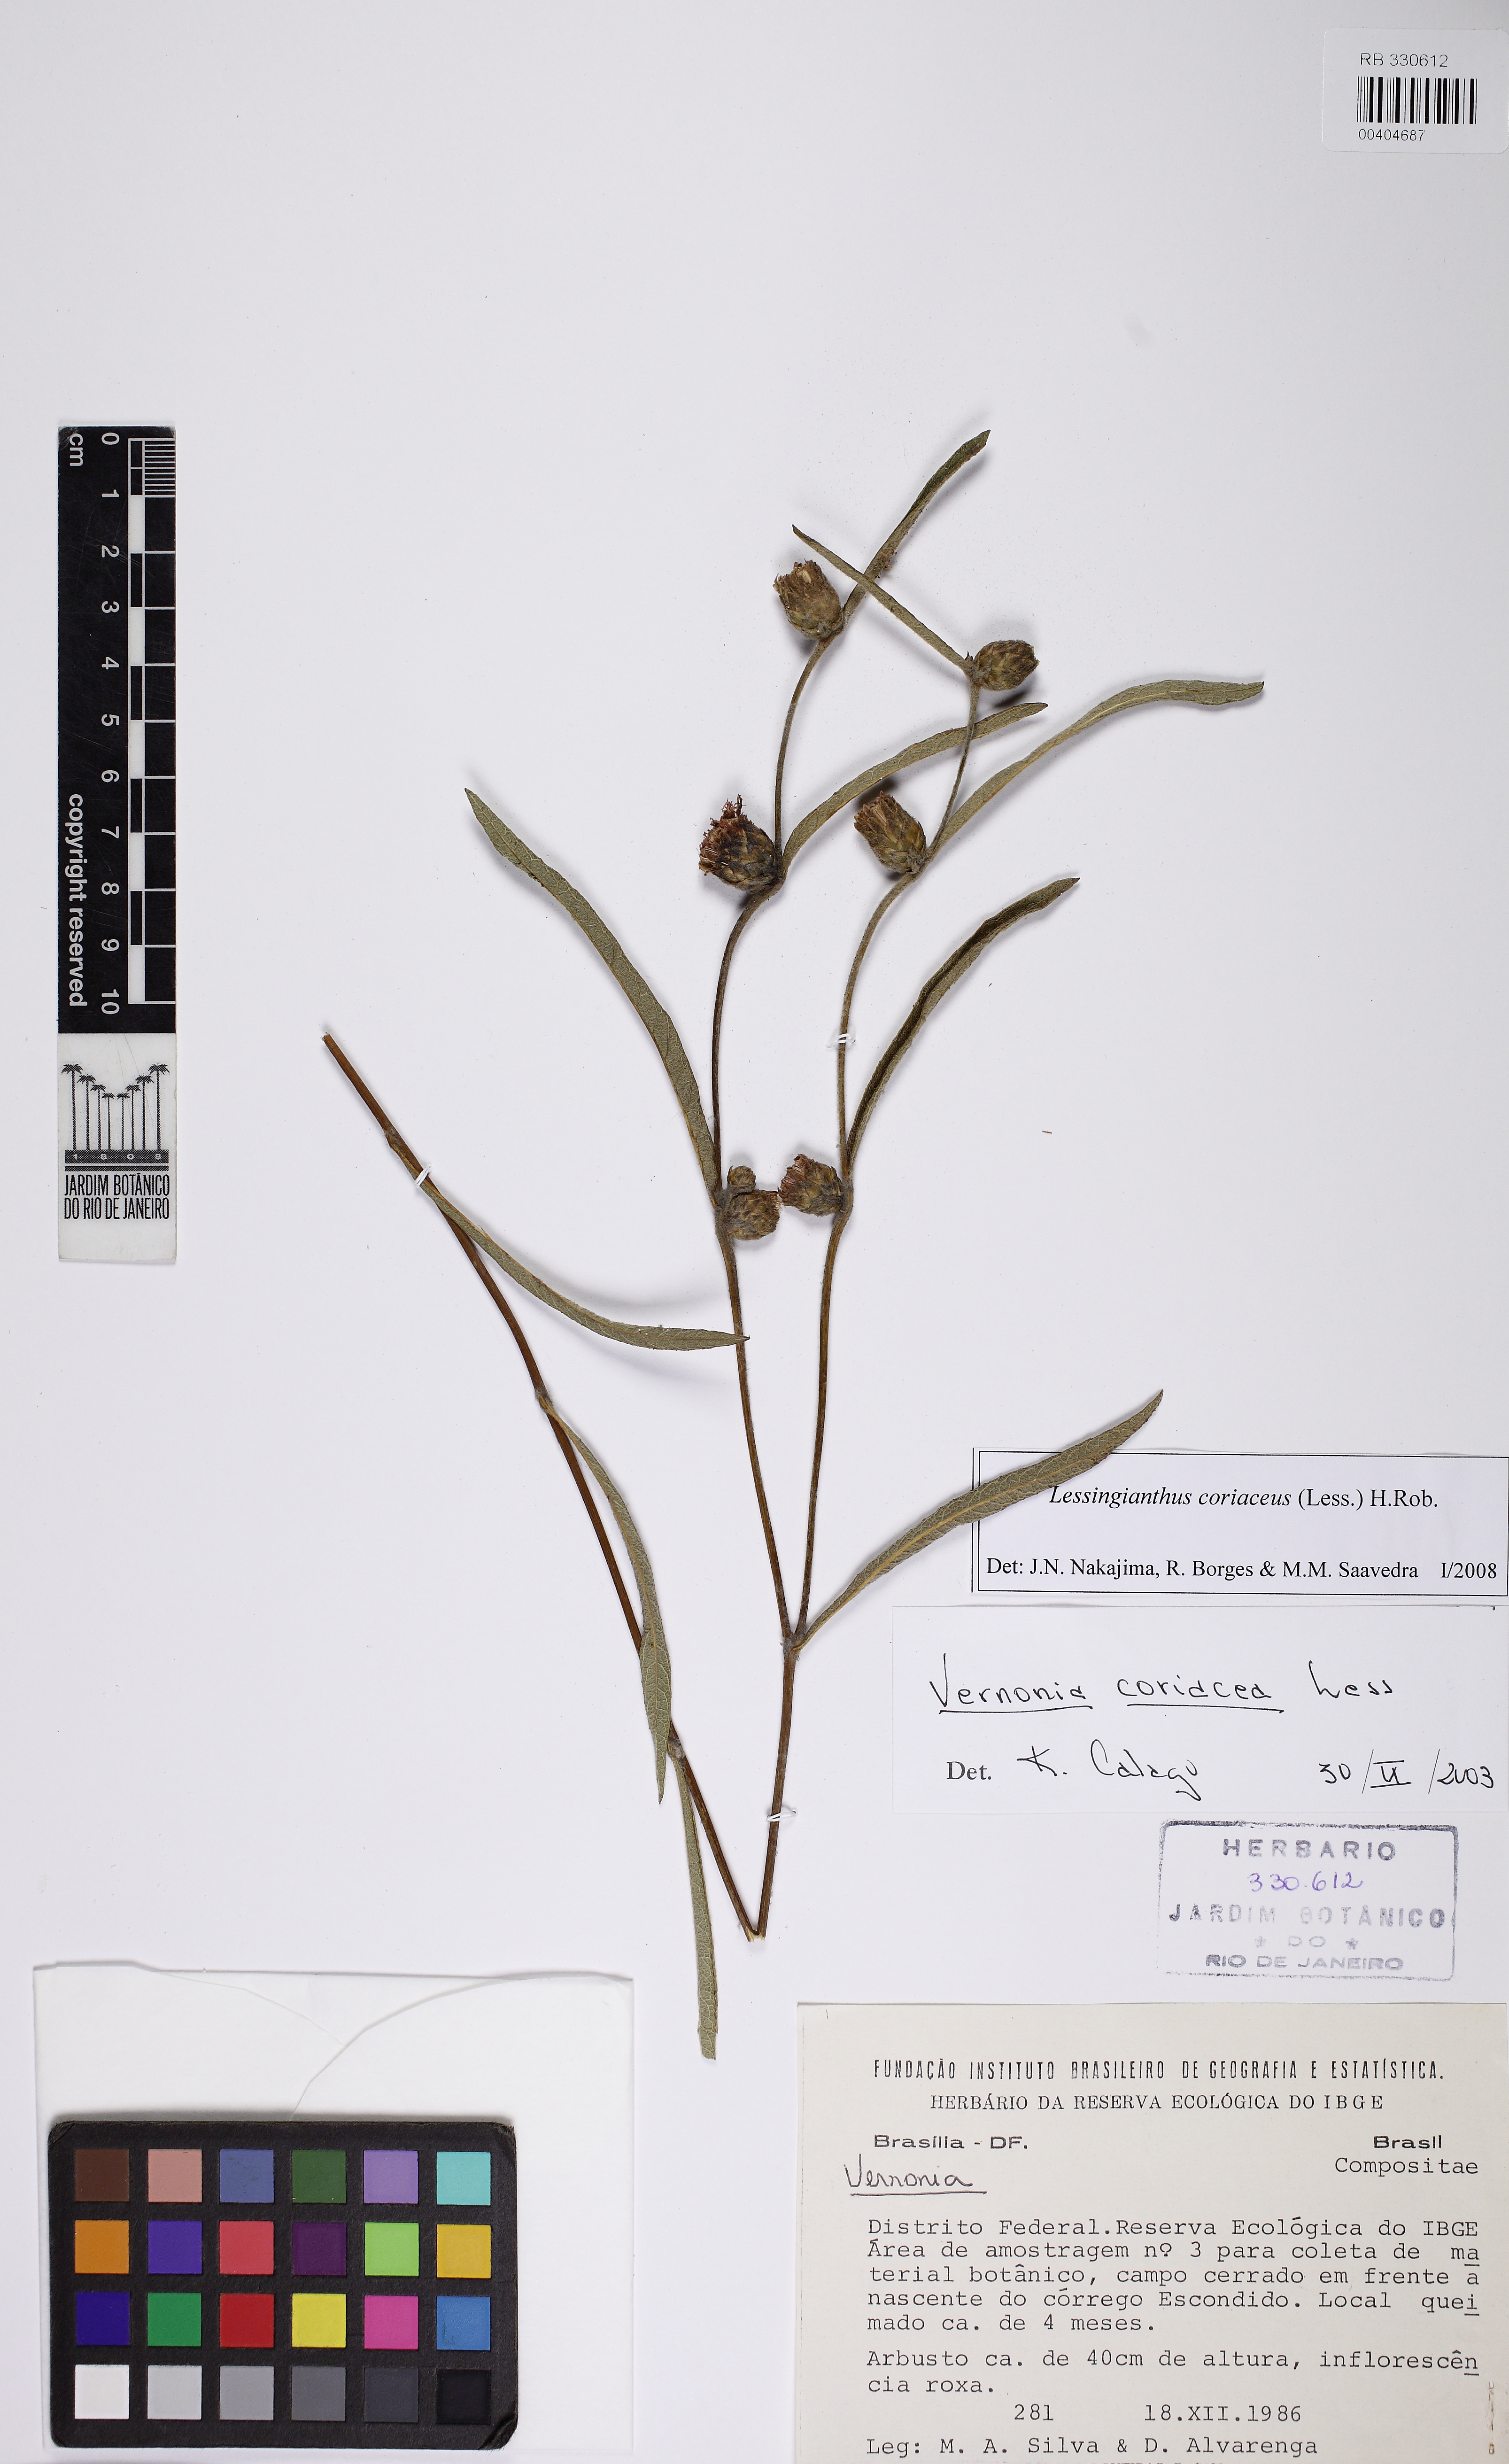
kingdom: Plantae
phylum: Tracheophyta
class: Magnoliopsida
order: Asterales
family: Asteraceae
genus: Lessingianthus
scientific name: Lessingianthus coriaceus
